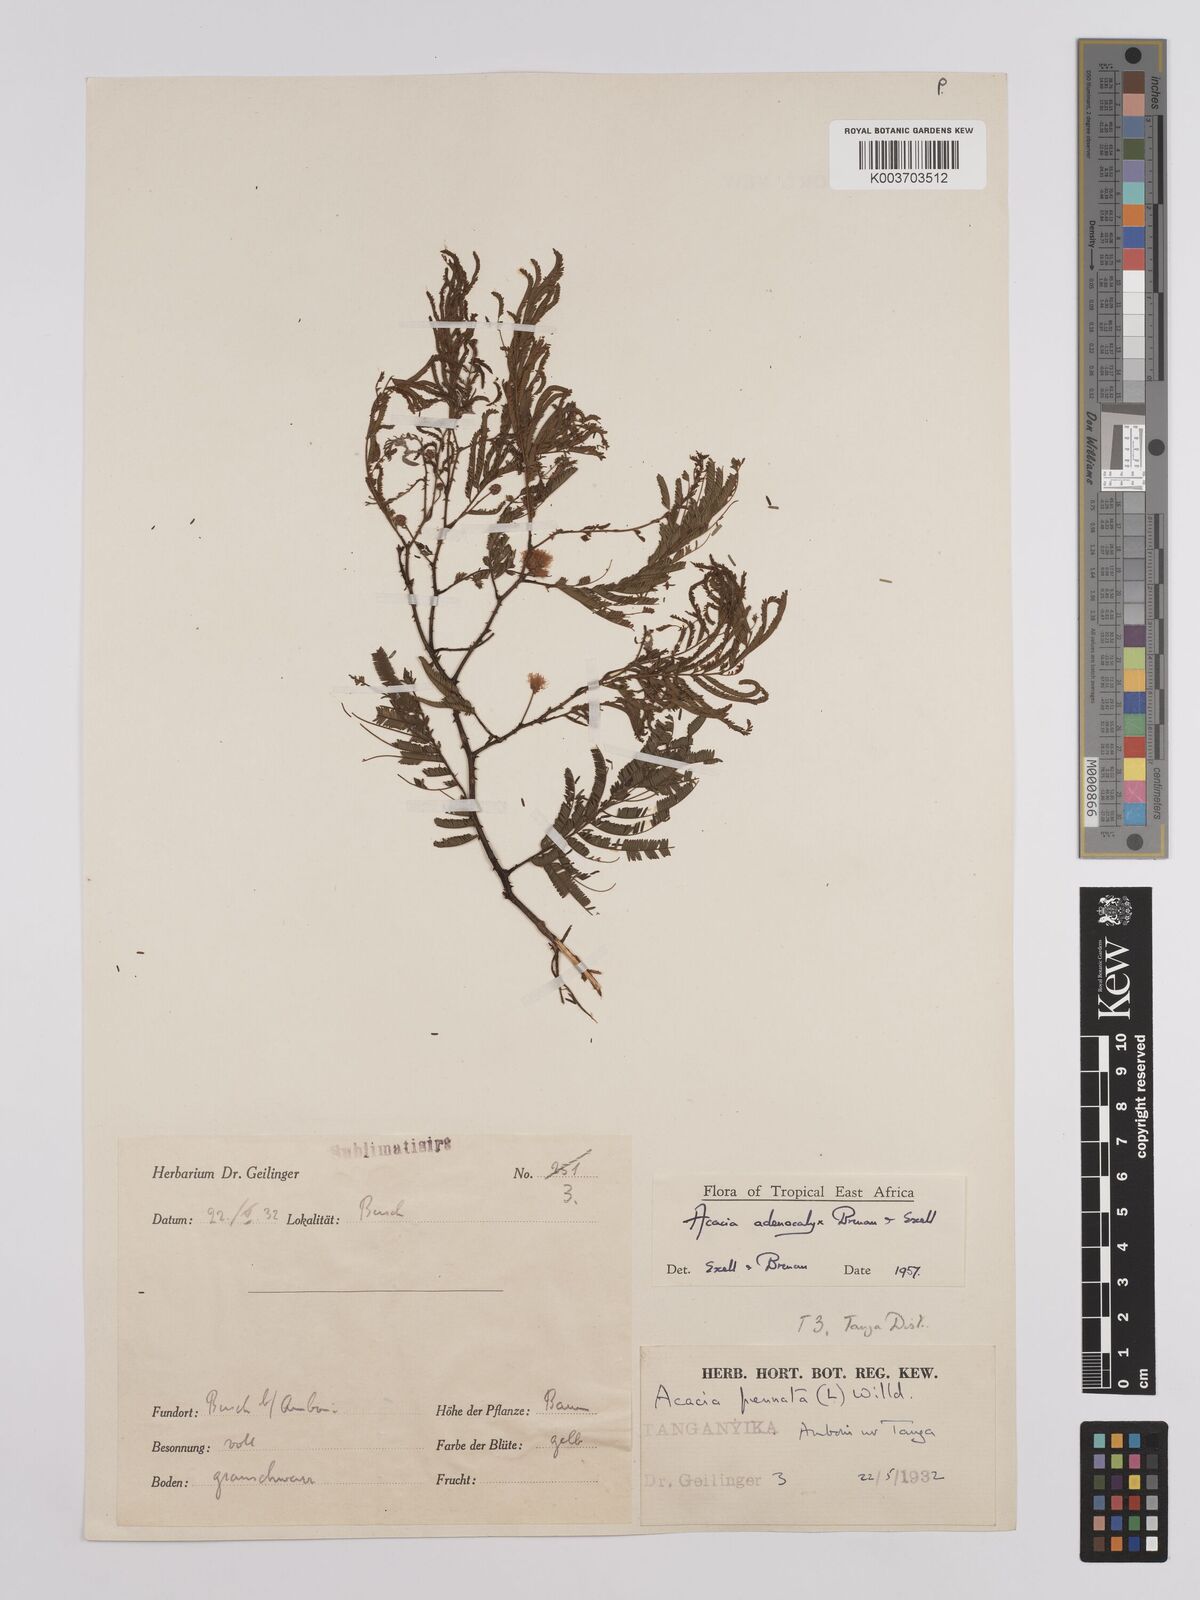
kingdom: Plantae
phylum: Tracheophyta
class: Magnoliopsida
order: Fabales
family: Fabaceae
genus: Senegalia
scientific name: Senegalia adenocalyx
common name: Pfurura
